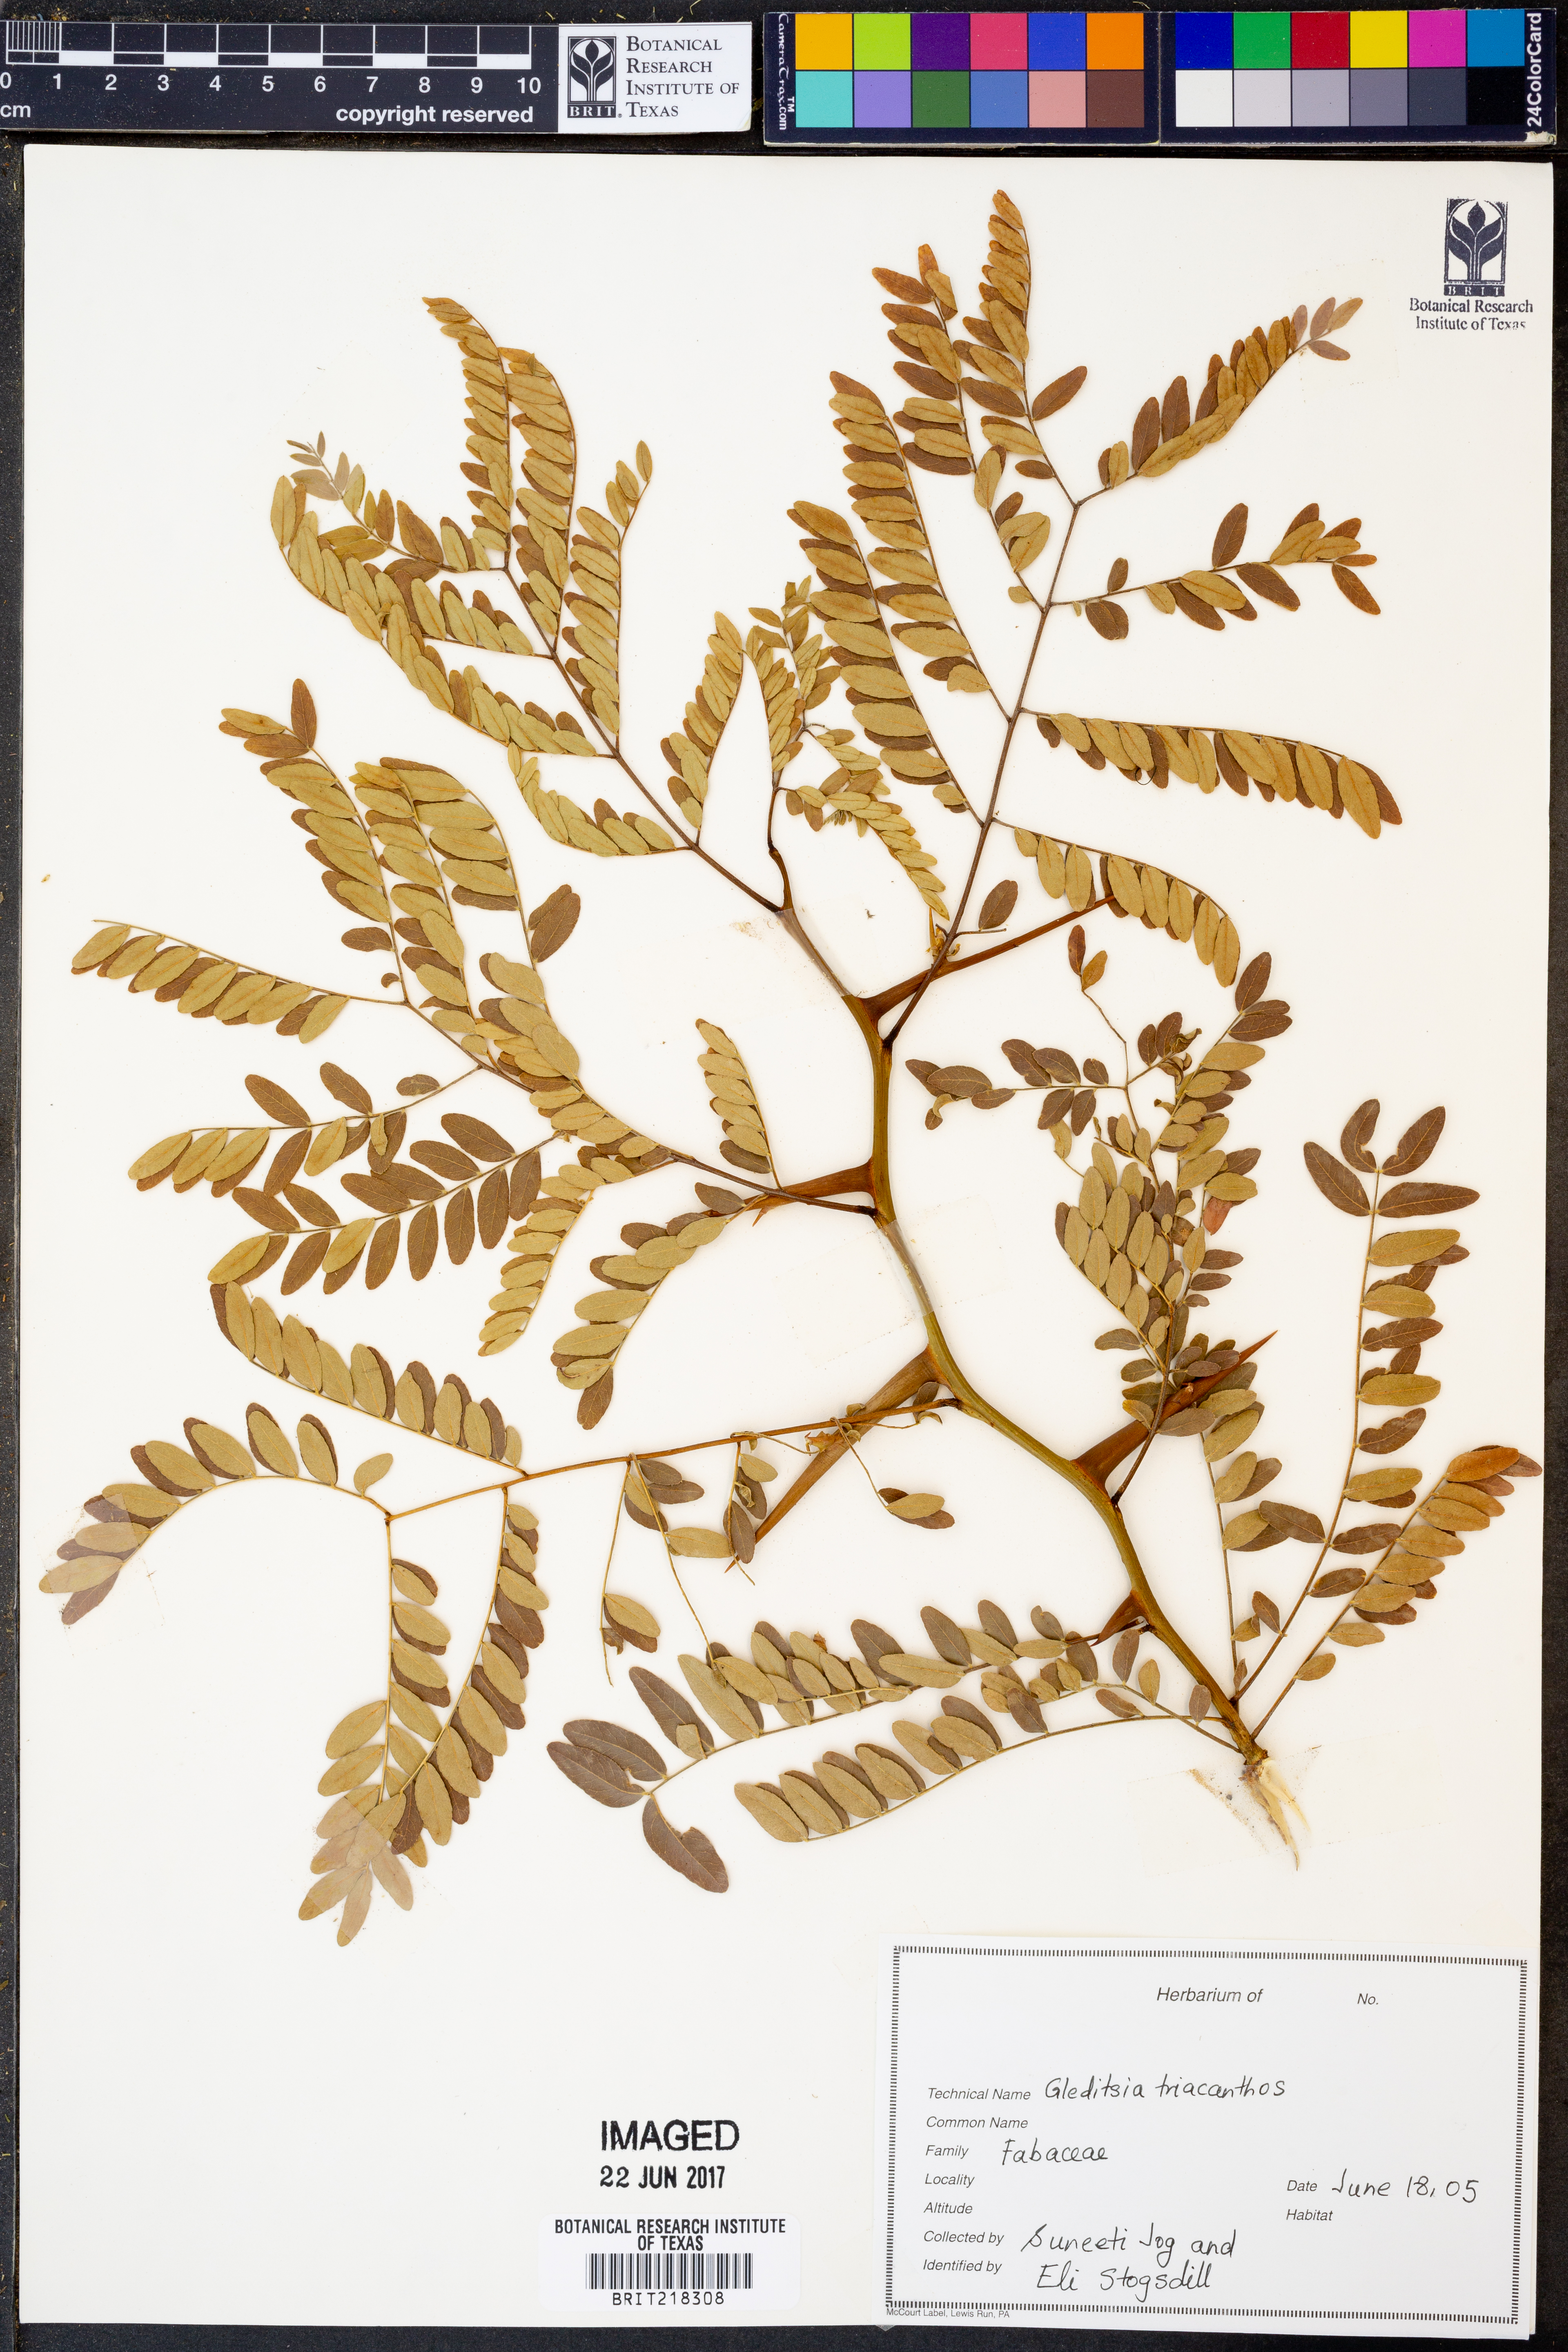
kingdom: Plantae
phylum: Tracheophyta
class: Magnoliopsida
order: Fabales
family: Fabaceae
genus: Gleditsia
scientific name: Gleditsia triacanthos
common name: Common honeylocust
